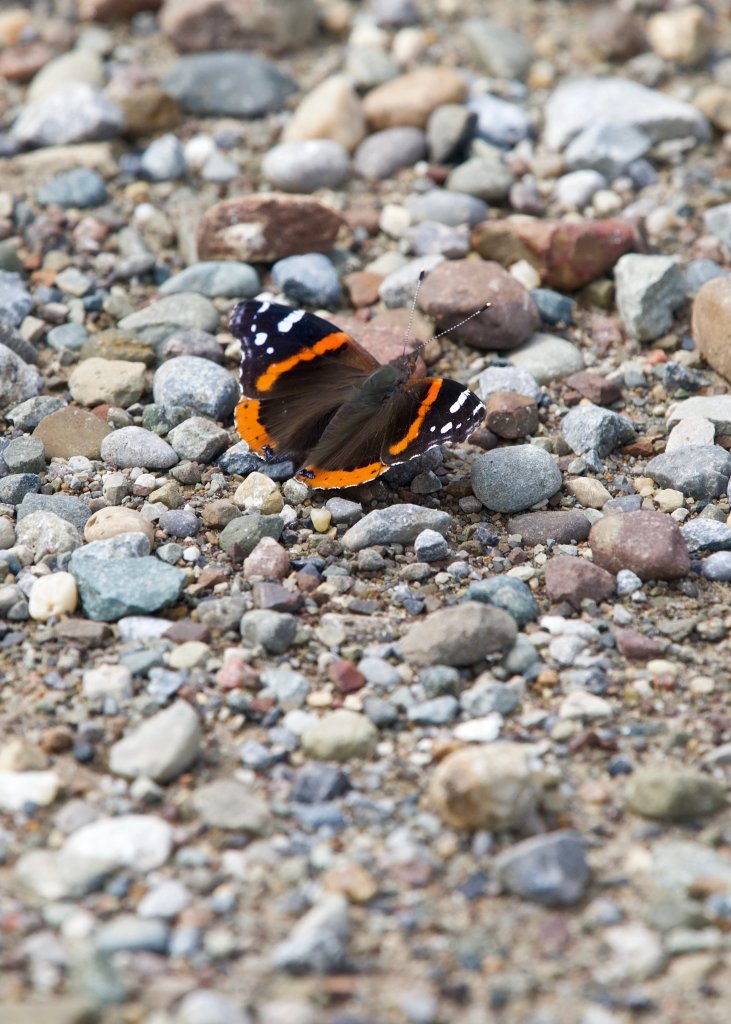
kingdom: Animalia
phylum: Arthropoda
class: Insecta
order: Lepidoptera
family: Nymphalidae
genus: Vanessa
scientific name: Vanessa atalanta
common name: Red Admiral
